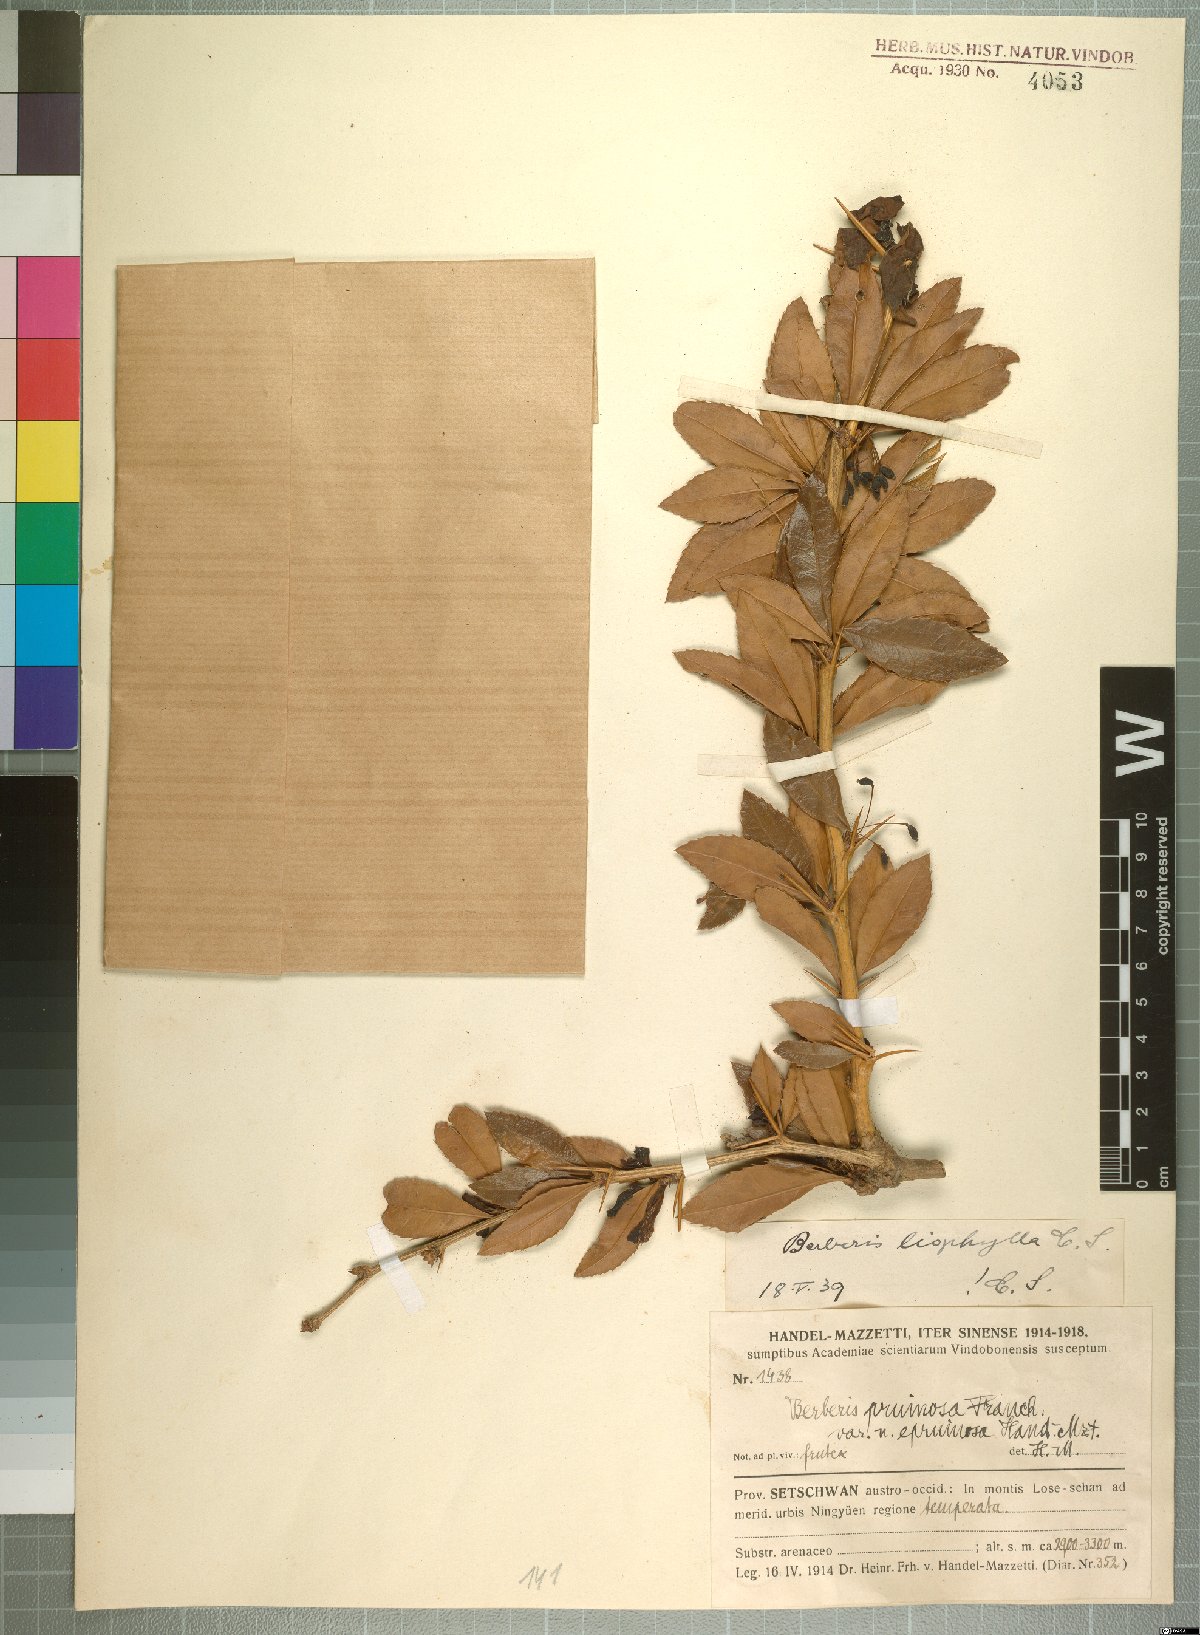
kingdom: Plantae
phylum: Tracheophyta
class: Magnoliopsida
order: Ranunculales
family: Berberidaceae
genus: Berberis
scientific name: Berberis liophylla
